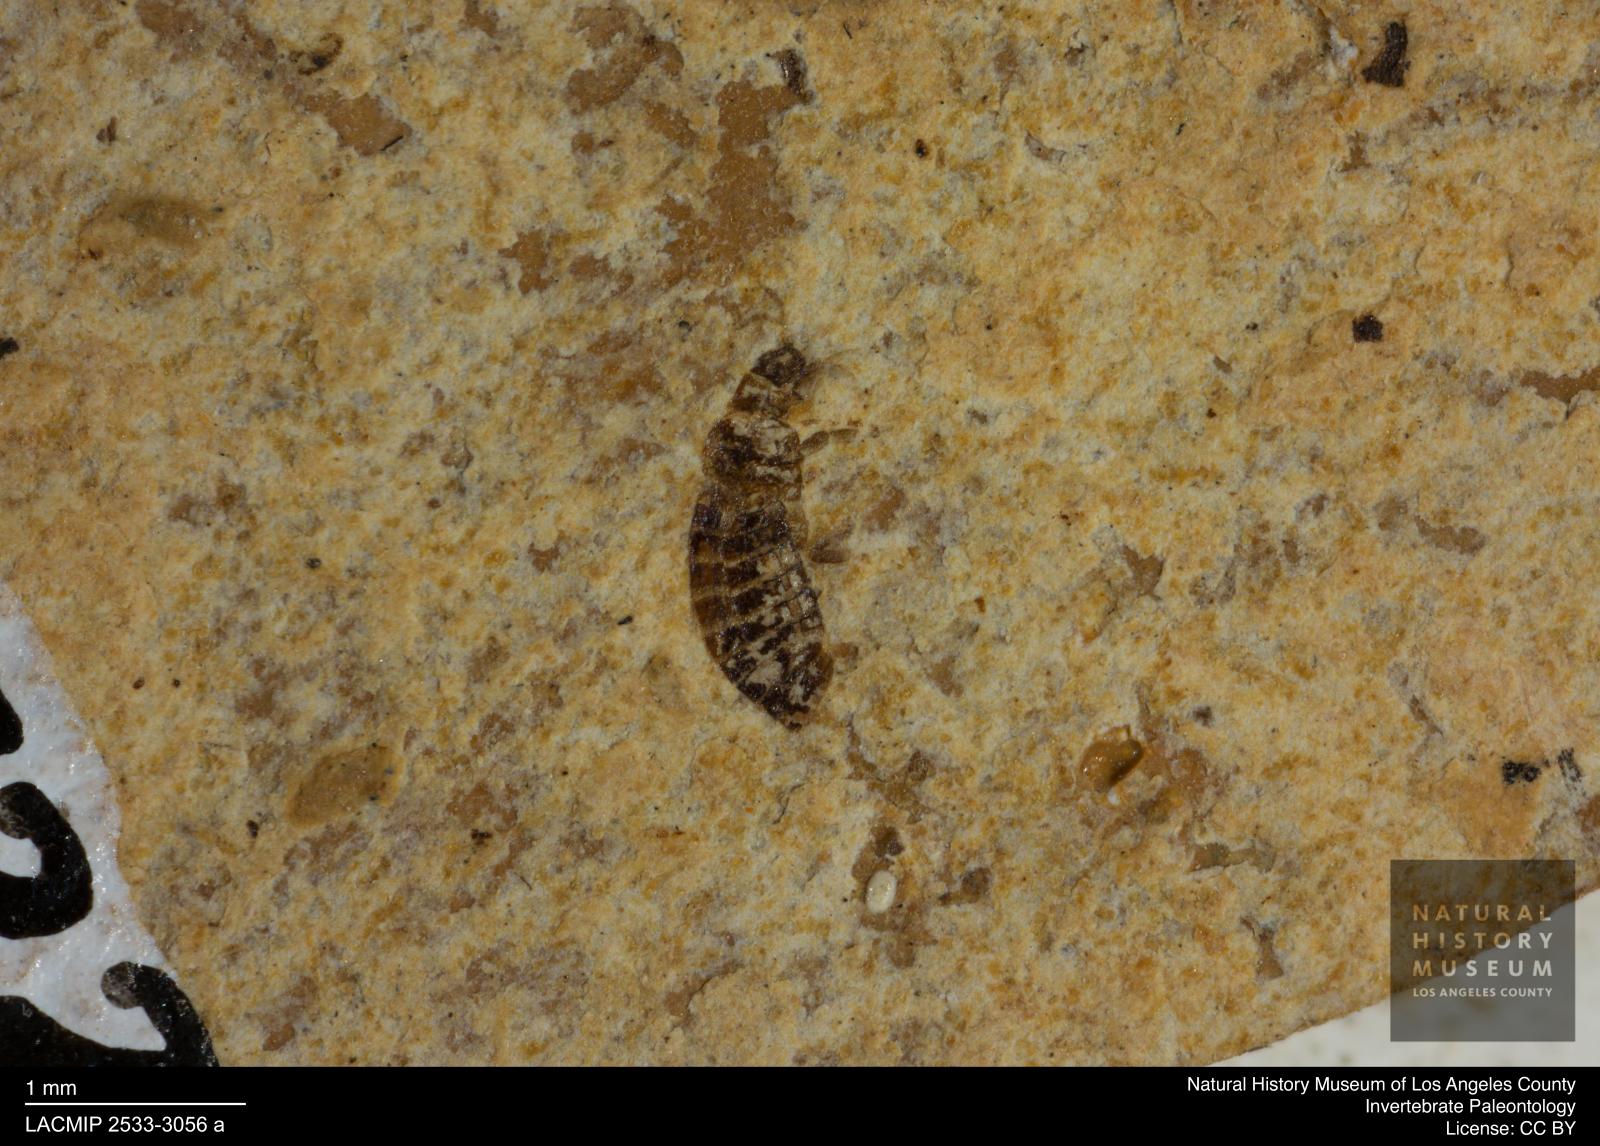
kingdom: Animalia
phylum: Arthropoda
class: Insecta
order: Thysanoptera
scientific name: Thysanoptera
